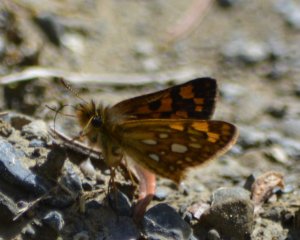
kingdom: Animalia
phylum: Arthropoda
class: Insecta
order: Lepidoptera
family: Hesperiidae
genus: Carterocephalus
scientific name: Carterocephalus palaemon
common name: Chequered Skipper
